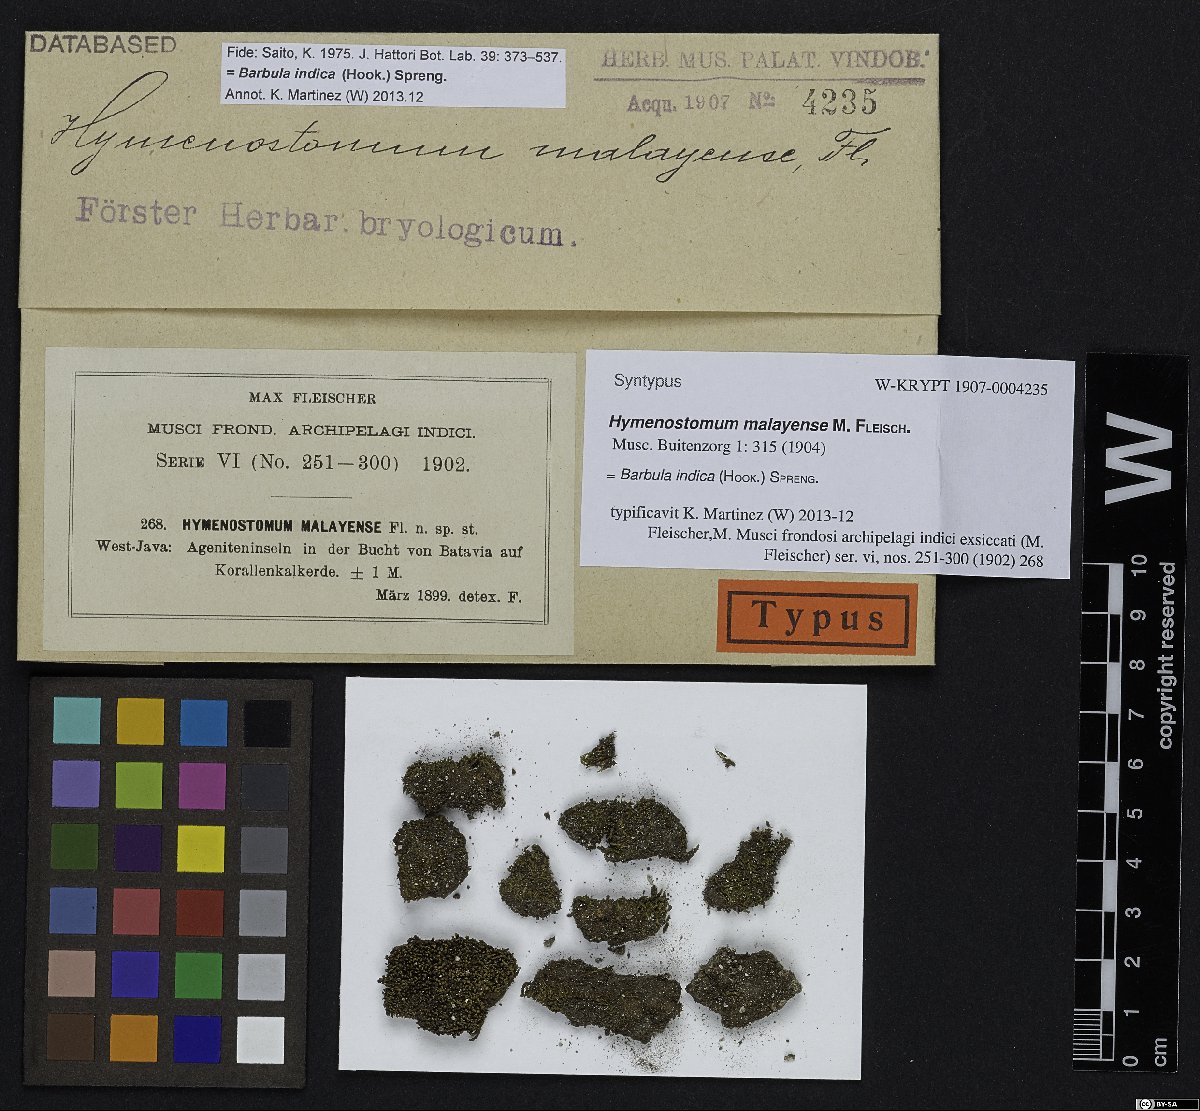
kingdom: Plantae
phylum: Bryophyta
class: Bryopsida
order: Pottiales
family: Pottiaceae
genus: Hydrogonium
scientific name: Hydrogonium orientale
